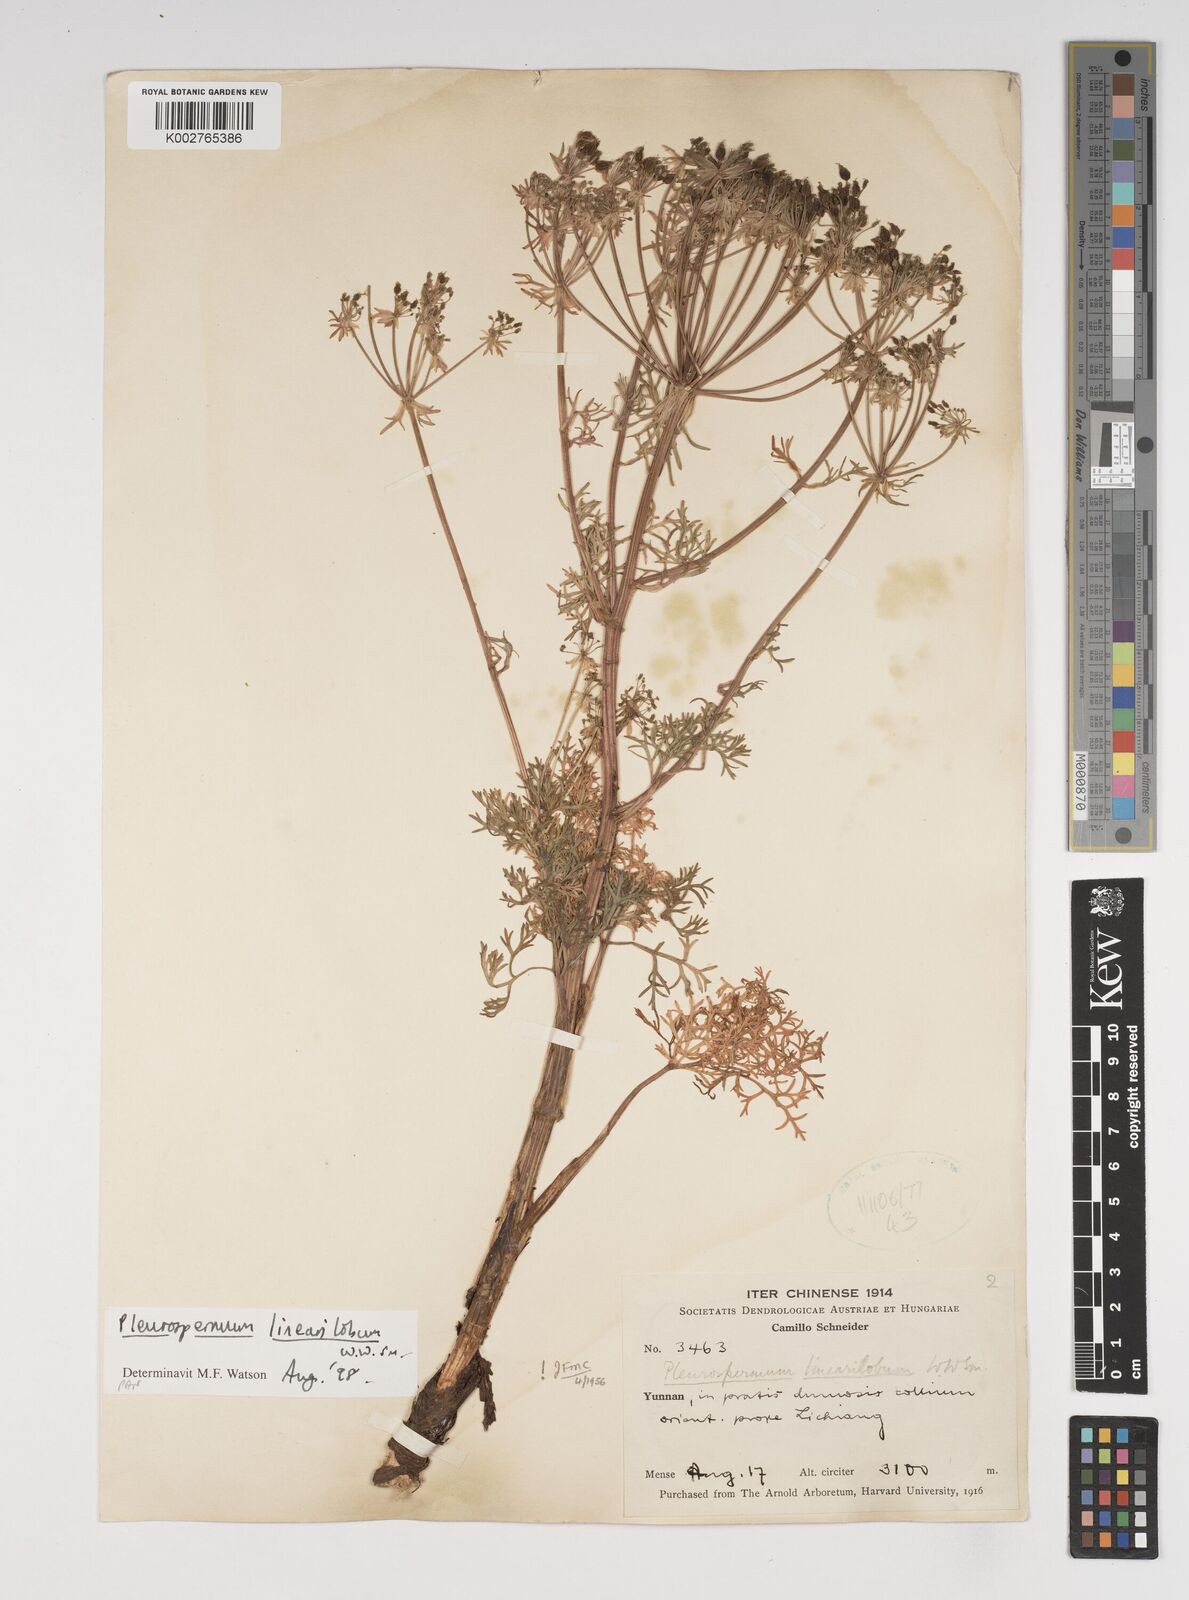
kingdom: Plantae
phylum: Tracheophyta
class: Magnoliopsida
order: Apiales
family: Apiaceae
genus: Hymenidium
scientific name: Hymenidium linearilobum
